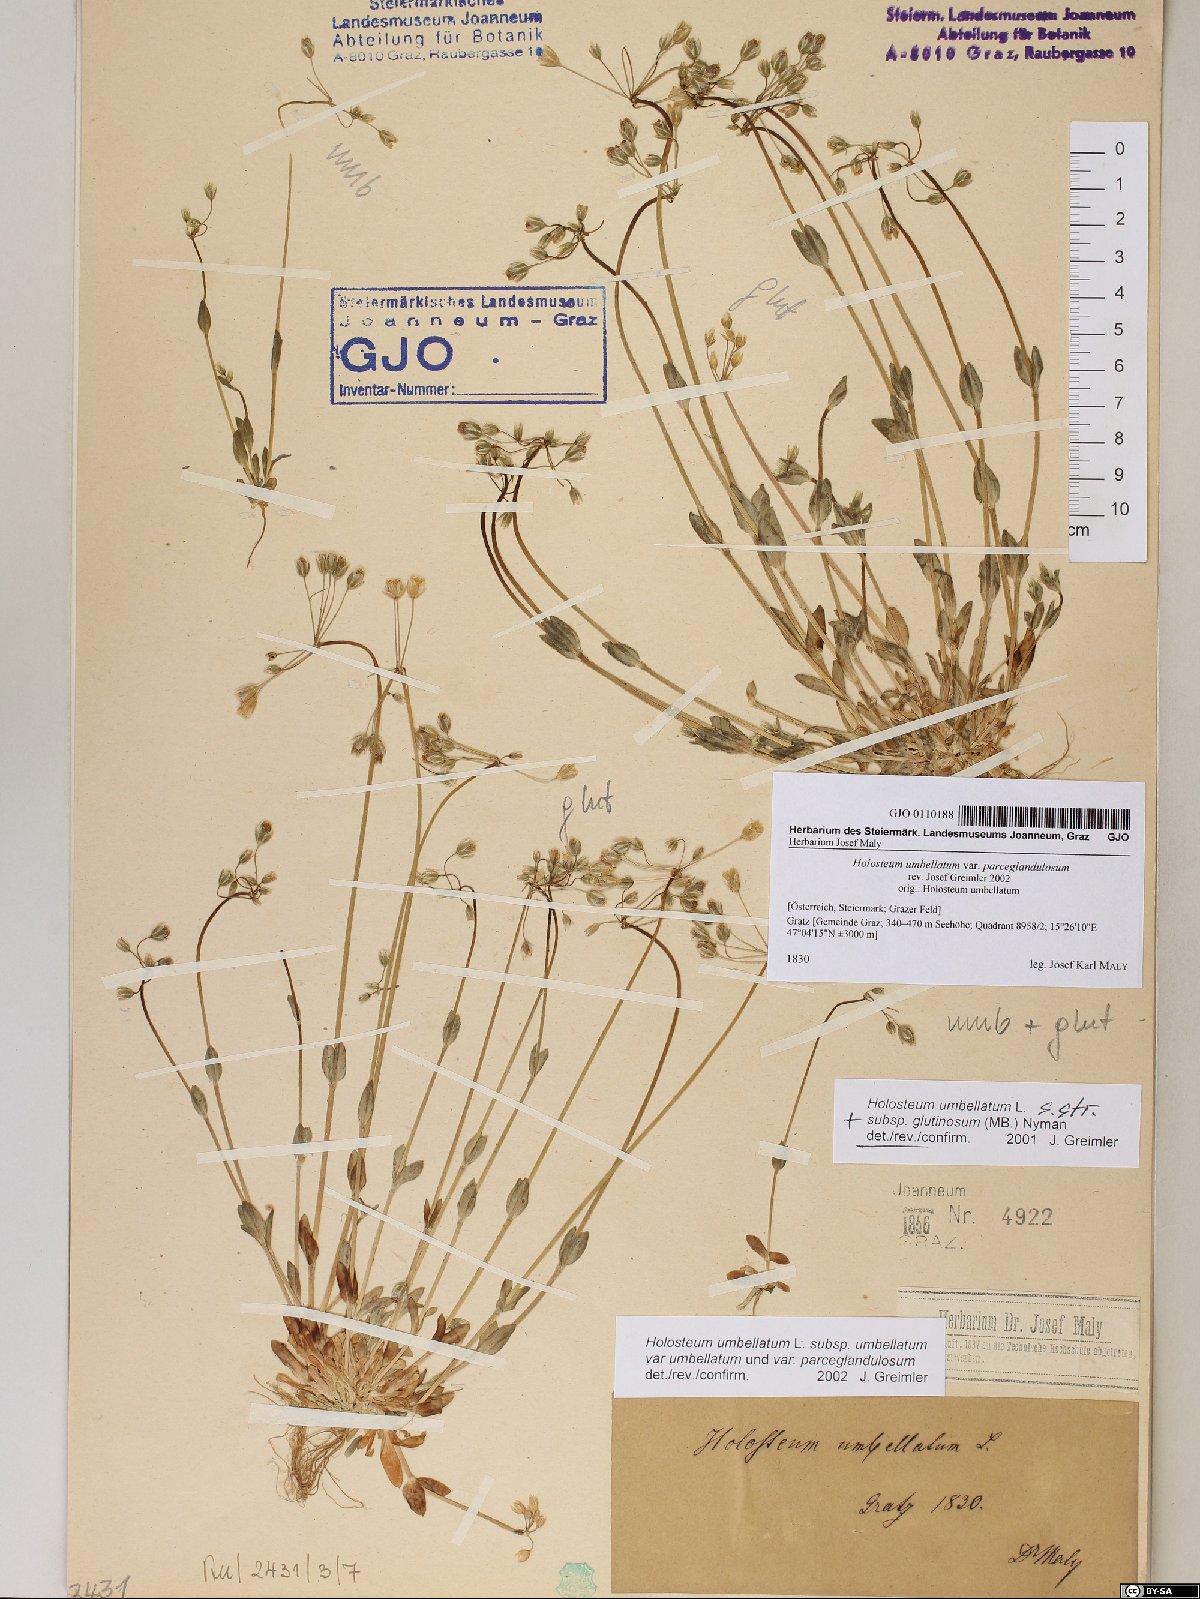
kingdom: Plantae
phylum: Tracheophyta
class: Magnoliopsida
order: Caryophyllales
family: Caryophyllaceae
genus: Holosteum
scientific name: Holosteum umbellatum
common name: Jagged chickweed
